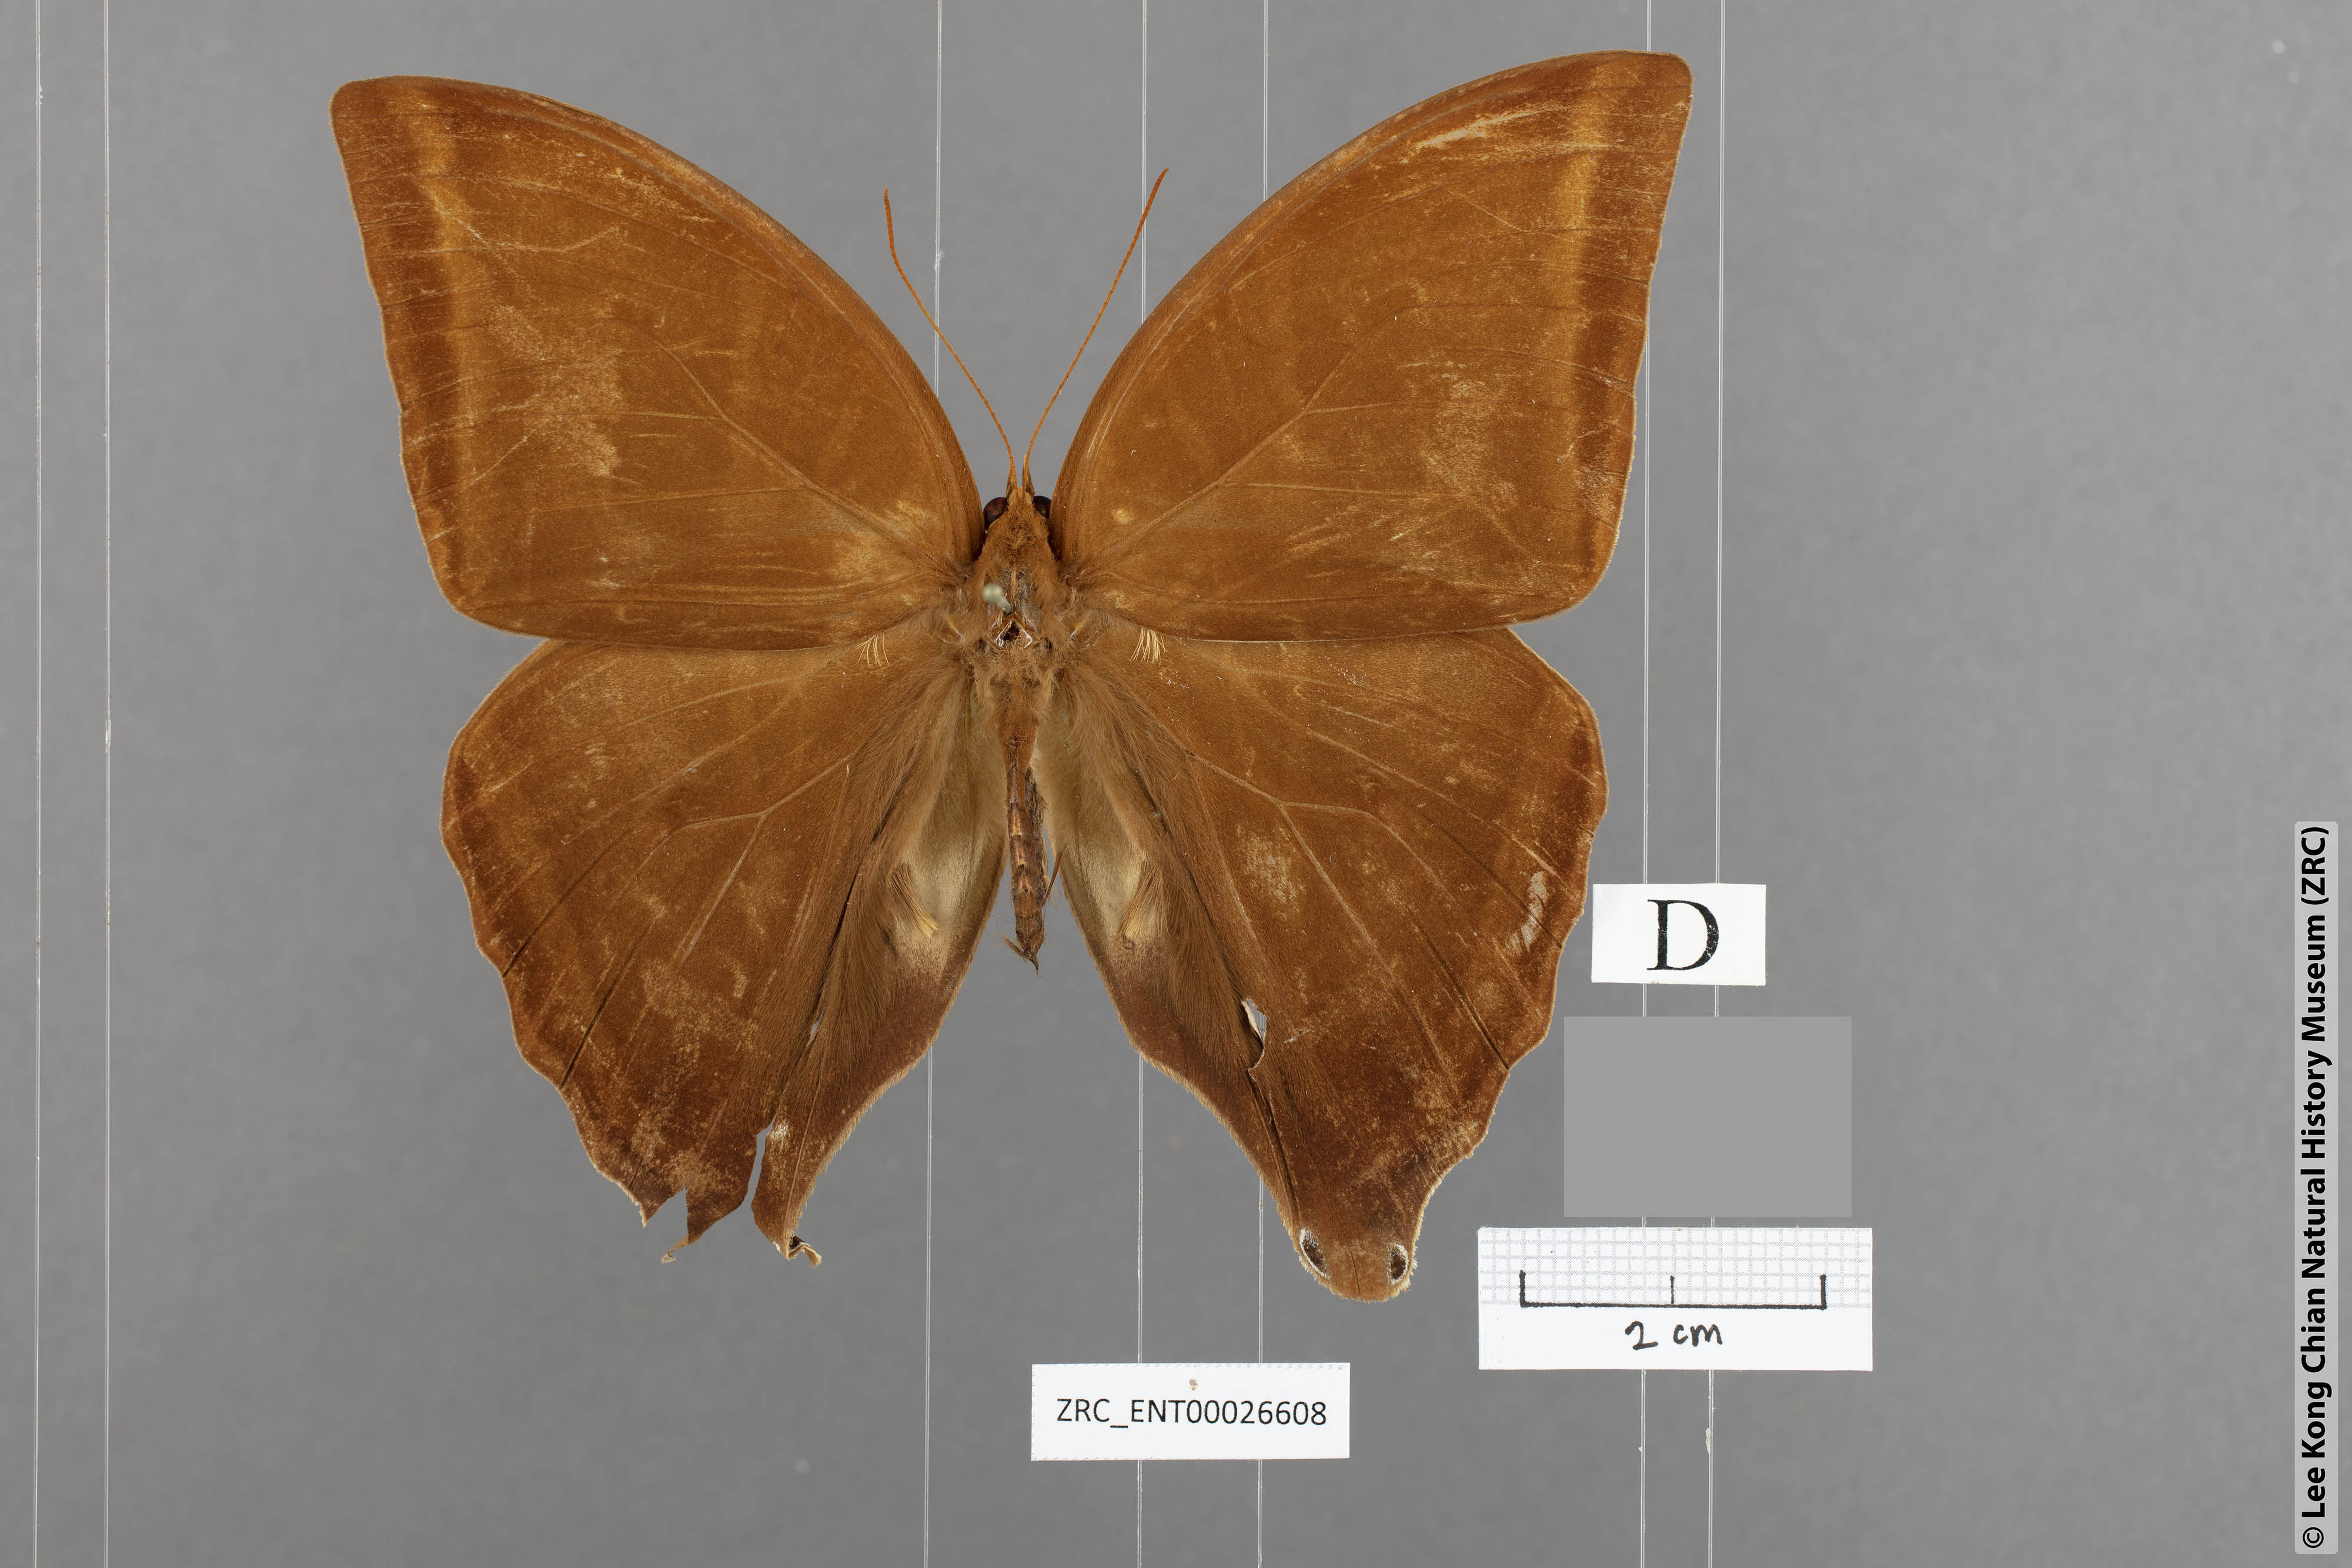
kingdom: Animalia
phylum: Arthropoda
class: Insecta
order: Lepidoptera
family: Nymphalidae
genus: Amathusia
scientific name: Amathusia masina
